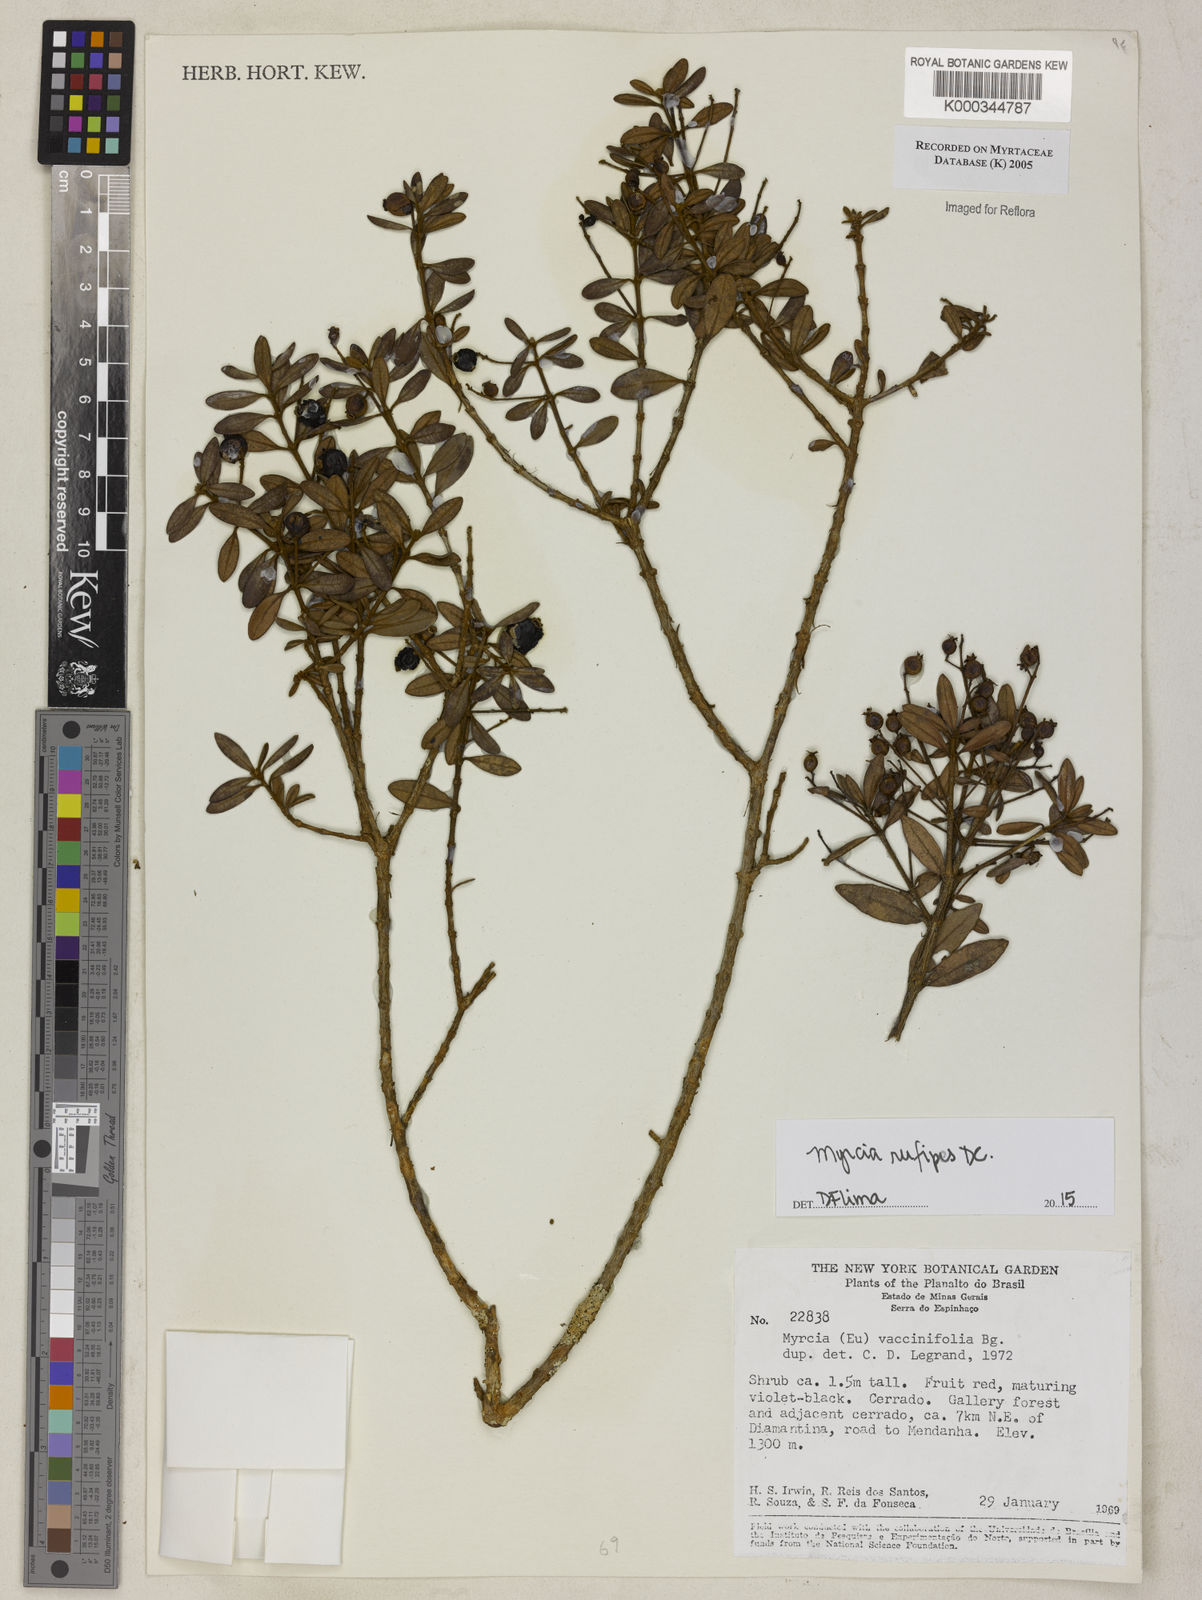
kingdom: Plantae
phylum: Tracheophyta
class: Magnoliopsida
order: Myrtales
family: Myrtaceae
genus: Myrcia
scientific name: Myrcia guianensis
